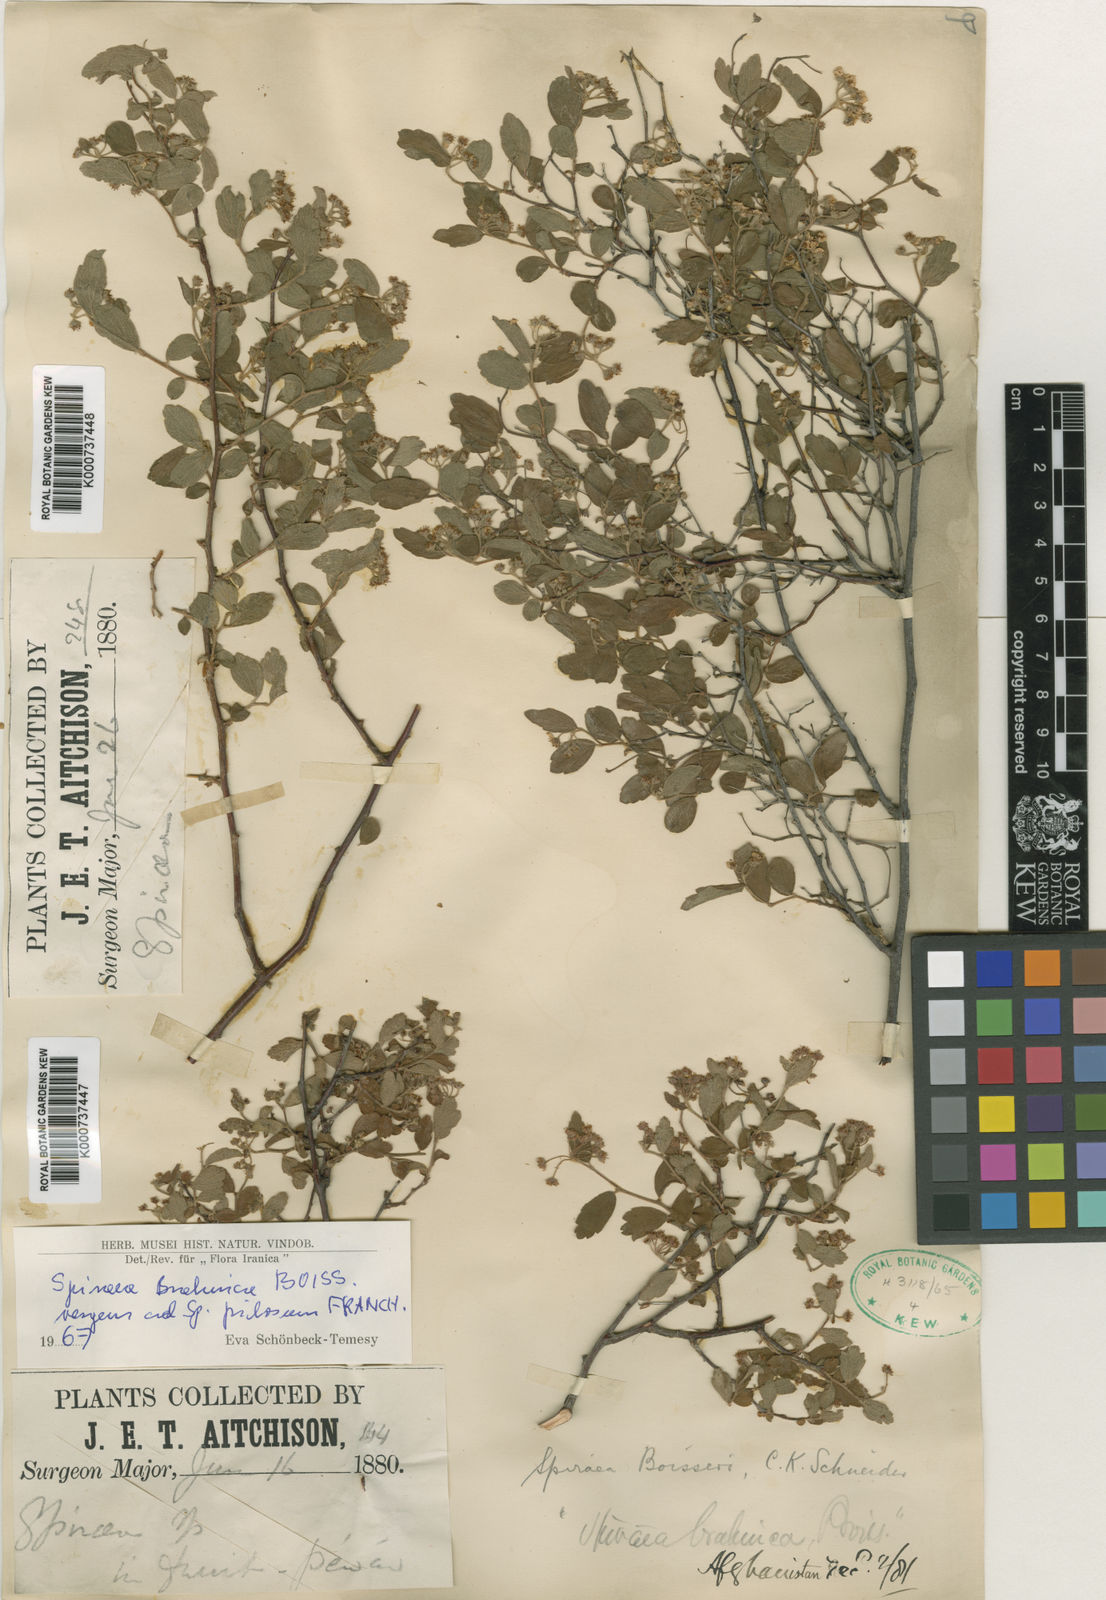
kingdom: Plantae
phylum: Tracheophyta
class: Magnoliopsida
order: Rosales
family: Rosaceae
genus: Spiraea
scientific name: Spiraea
